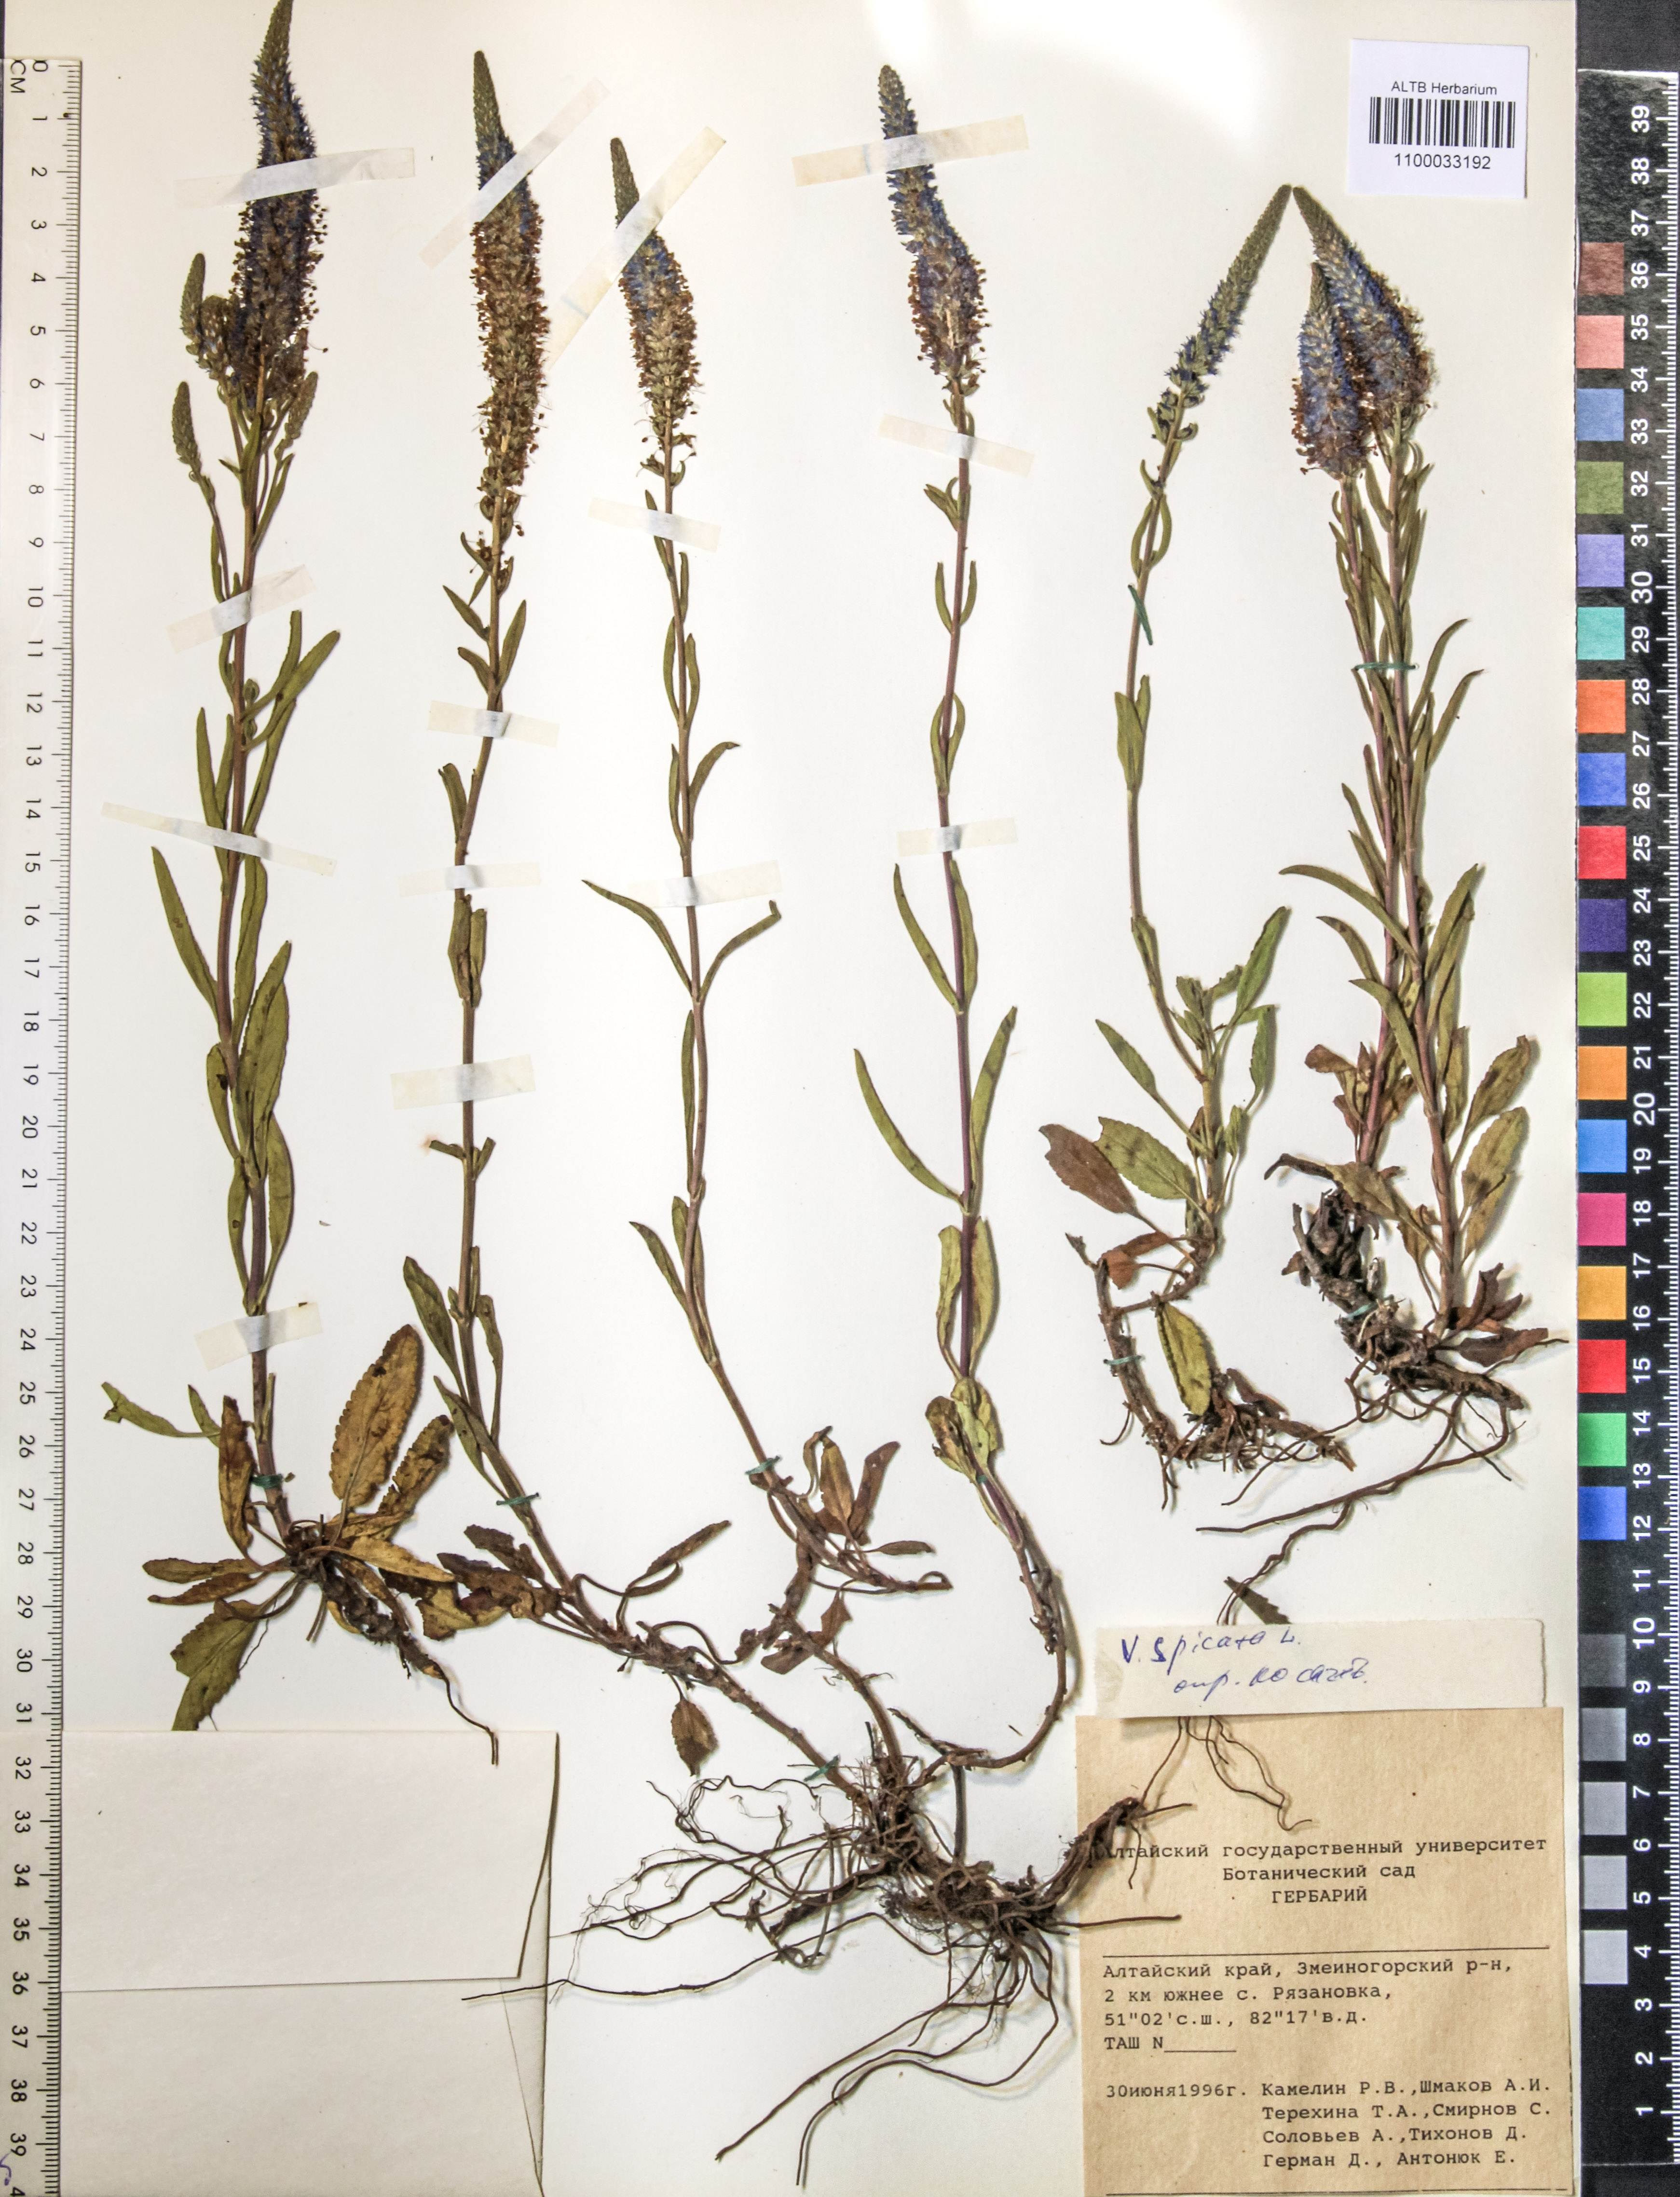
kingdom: Plantae
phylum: Tracheophyta
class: Magnoliopsida
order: Lamiales
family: Plantaginaceae
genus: Veronica
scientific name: Veronica spicata
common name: Spiked speedwell
